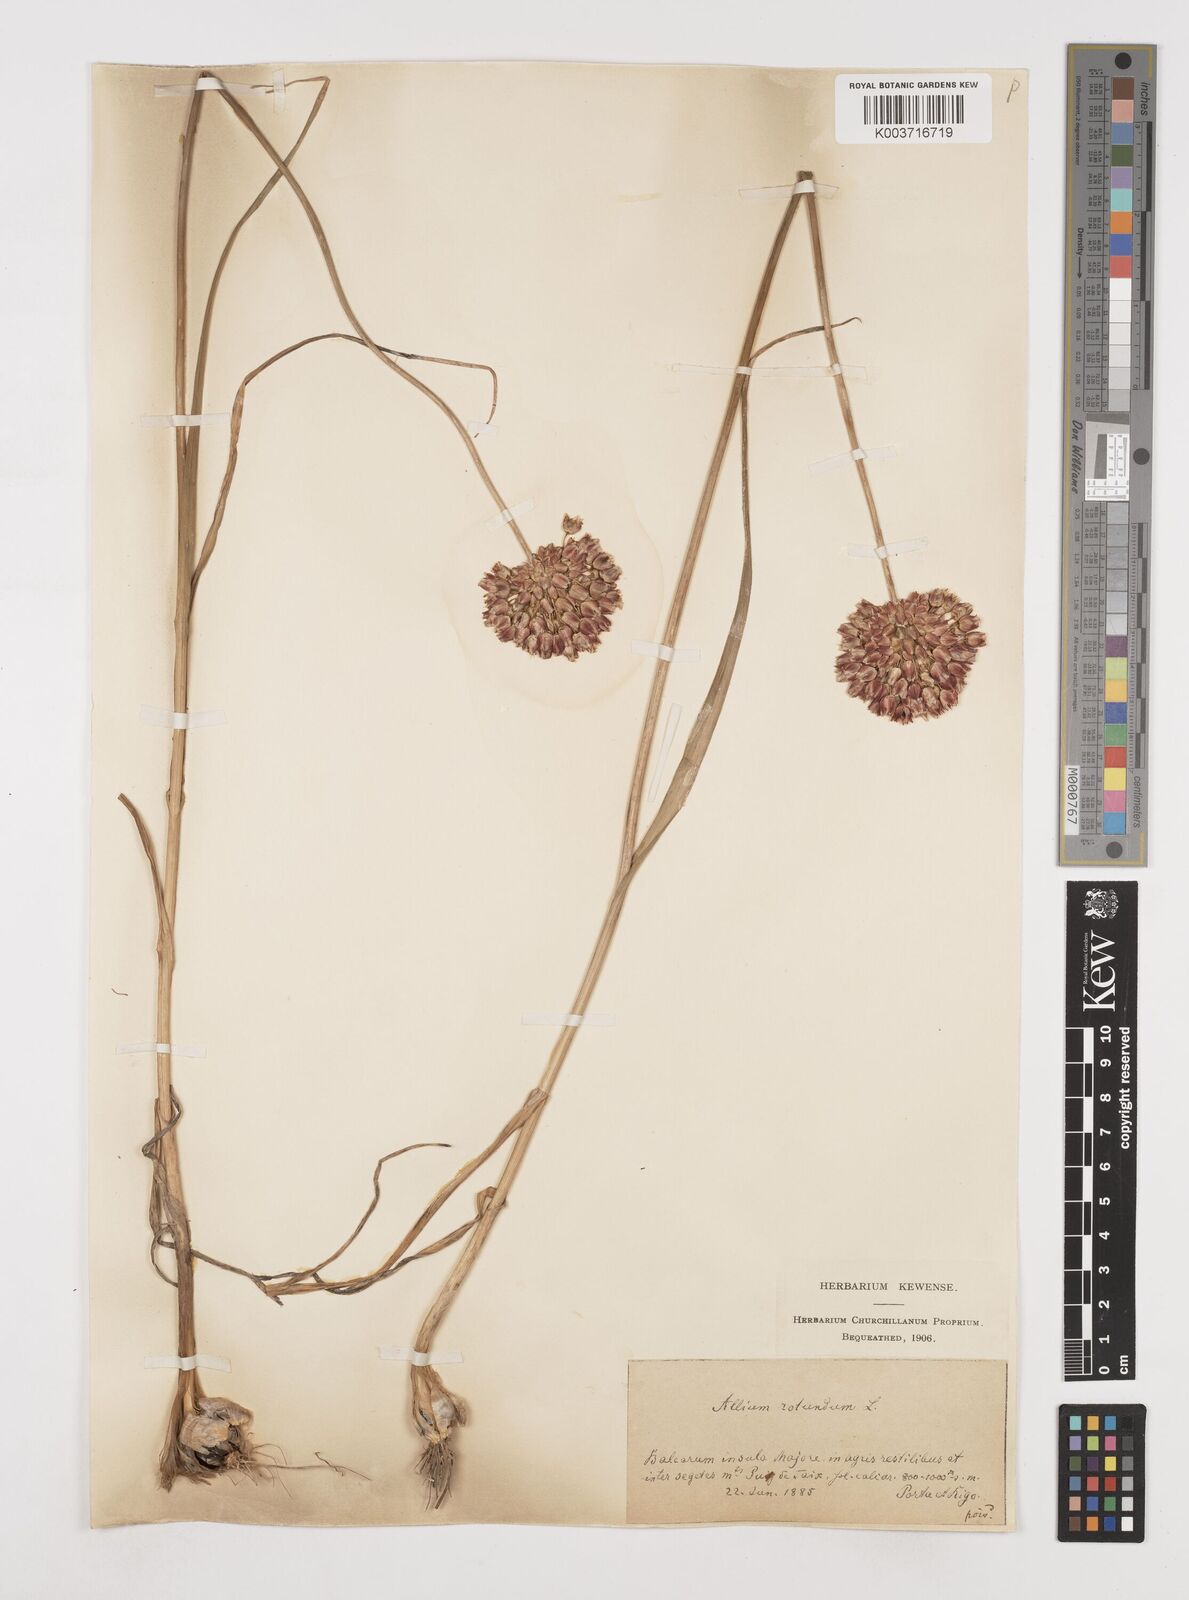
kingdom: Plantae
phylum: Tracheophyta
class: Liliopsida
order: Asparagales
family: Amaryllidaceae
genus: Allium
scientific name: Allium rotundum
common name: Sand leek
